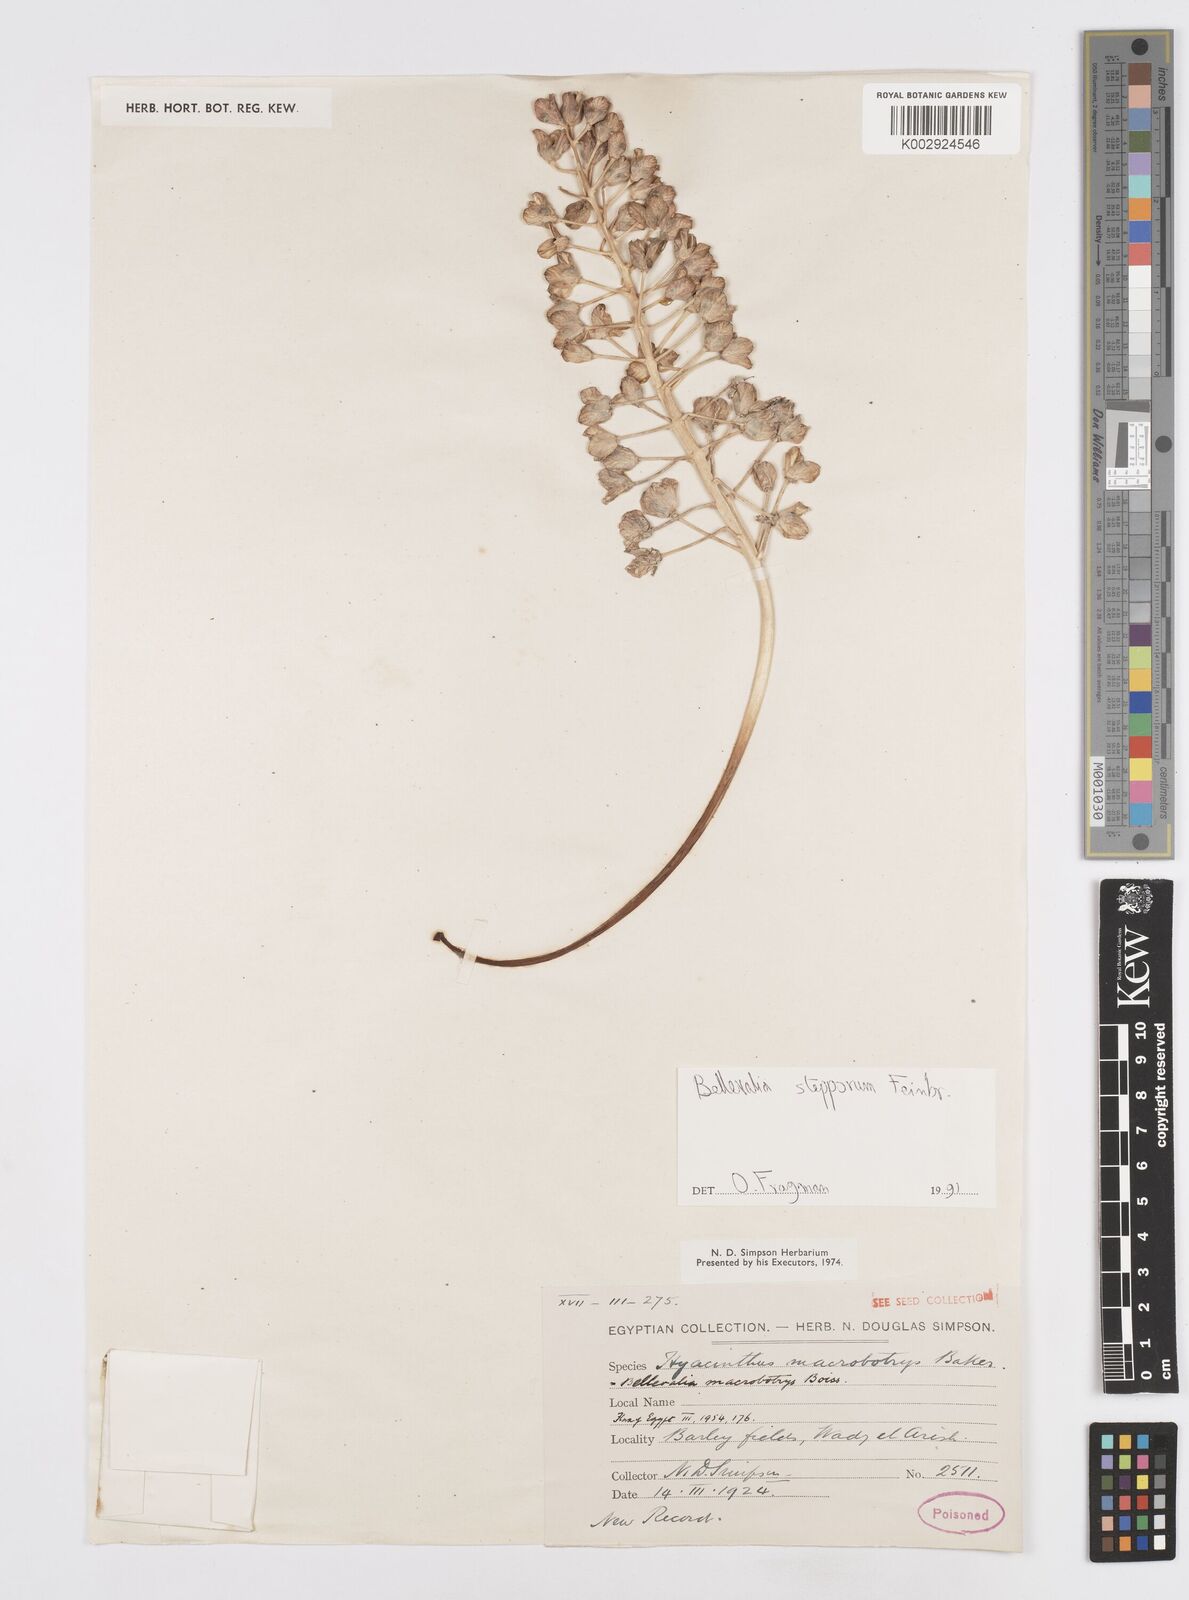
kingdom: Plantae
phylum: Tracheophyta
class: Liliopsida
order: Asparagales
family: Asparagaceae
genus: Bellevalia
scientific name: Bellevalia stepporum
